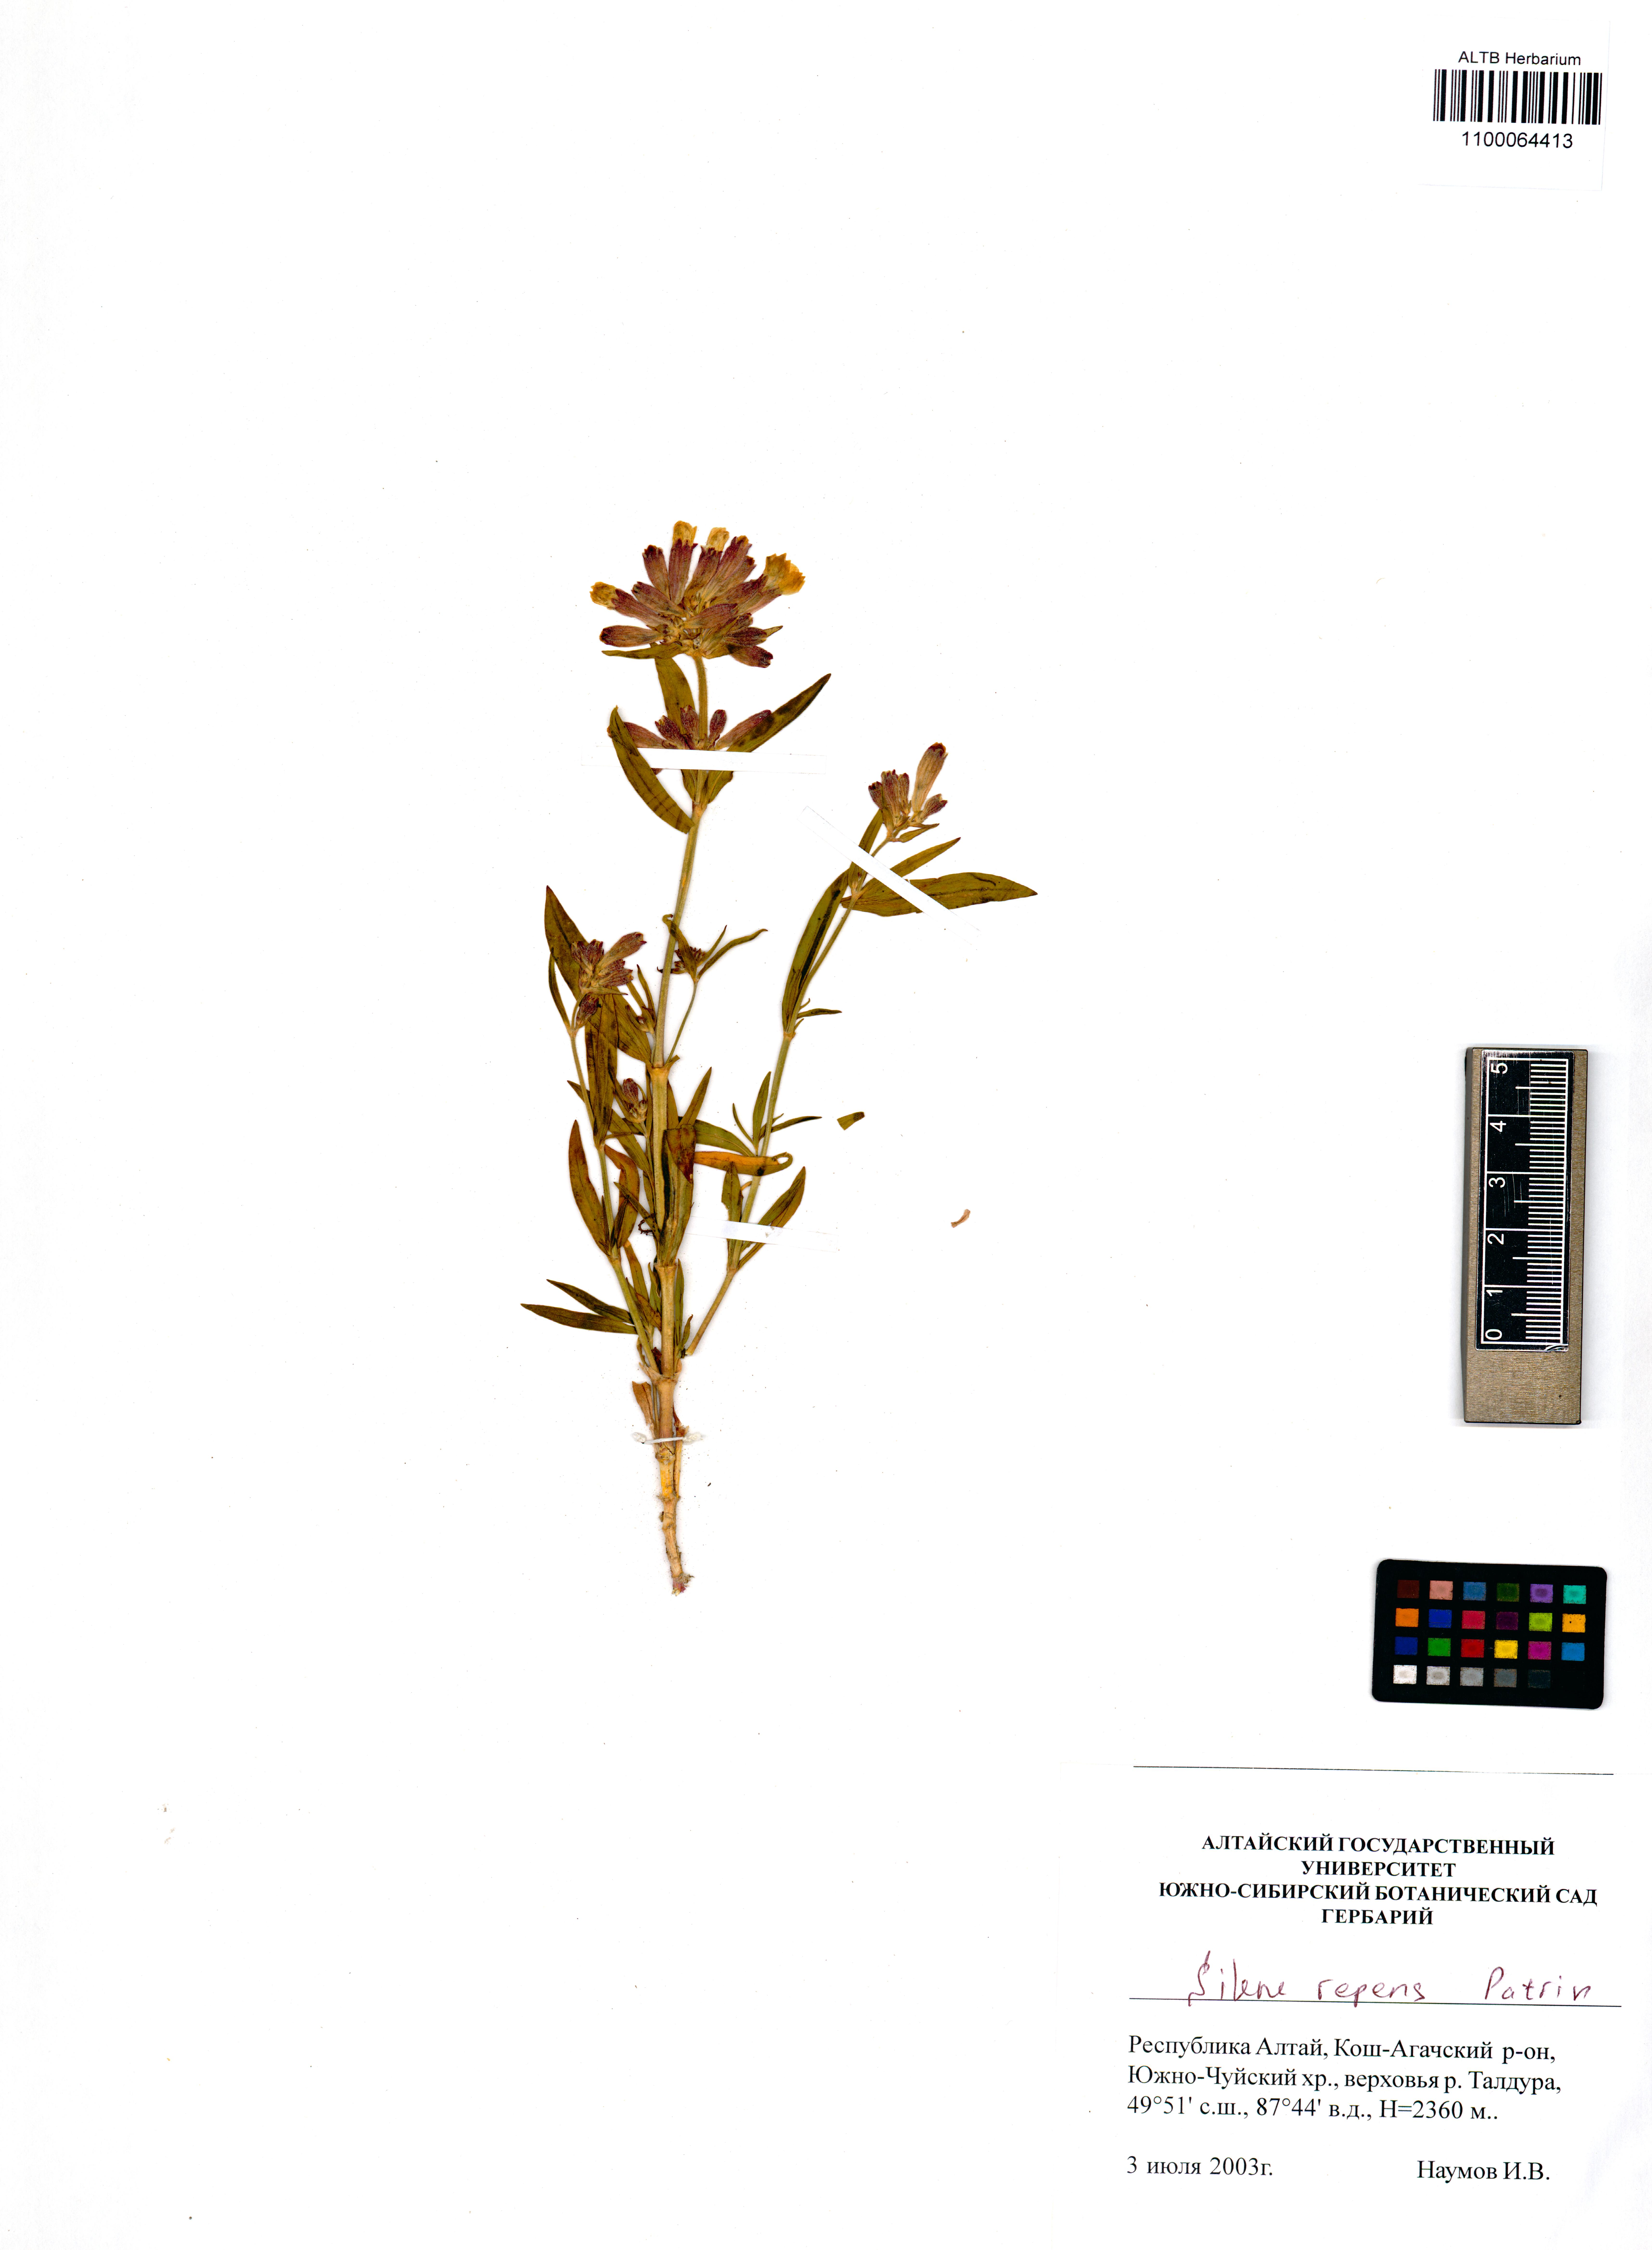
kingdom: Plantae
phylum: Tracheophyta
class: Magnoliopsida
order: Caryophyllales
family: Caryophyllaceae
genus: Silene
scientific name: Silene repens
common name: Pink campion
